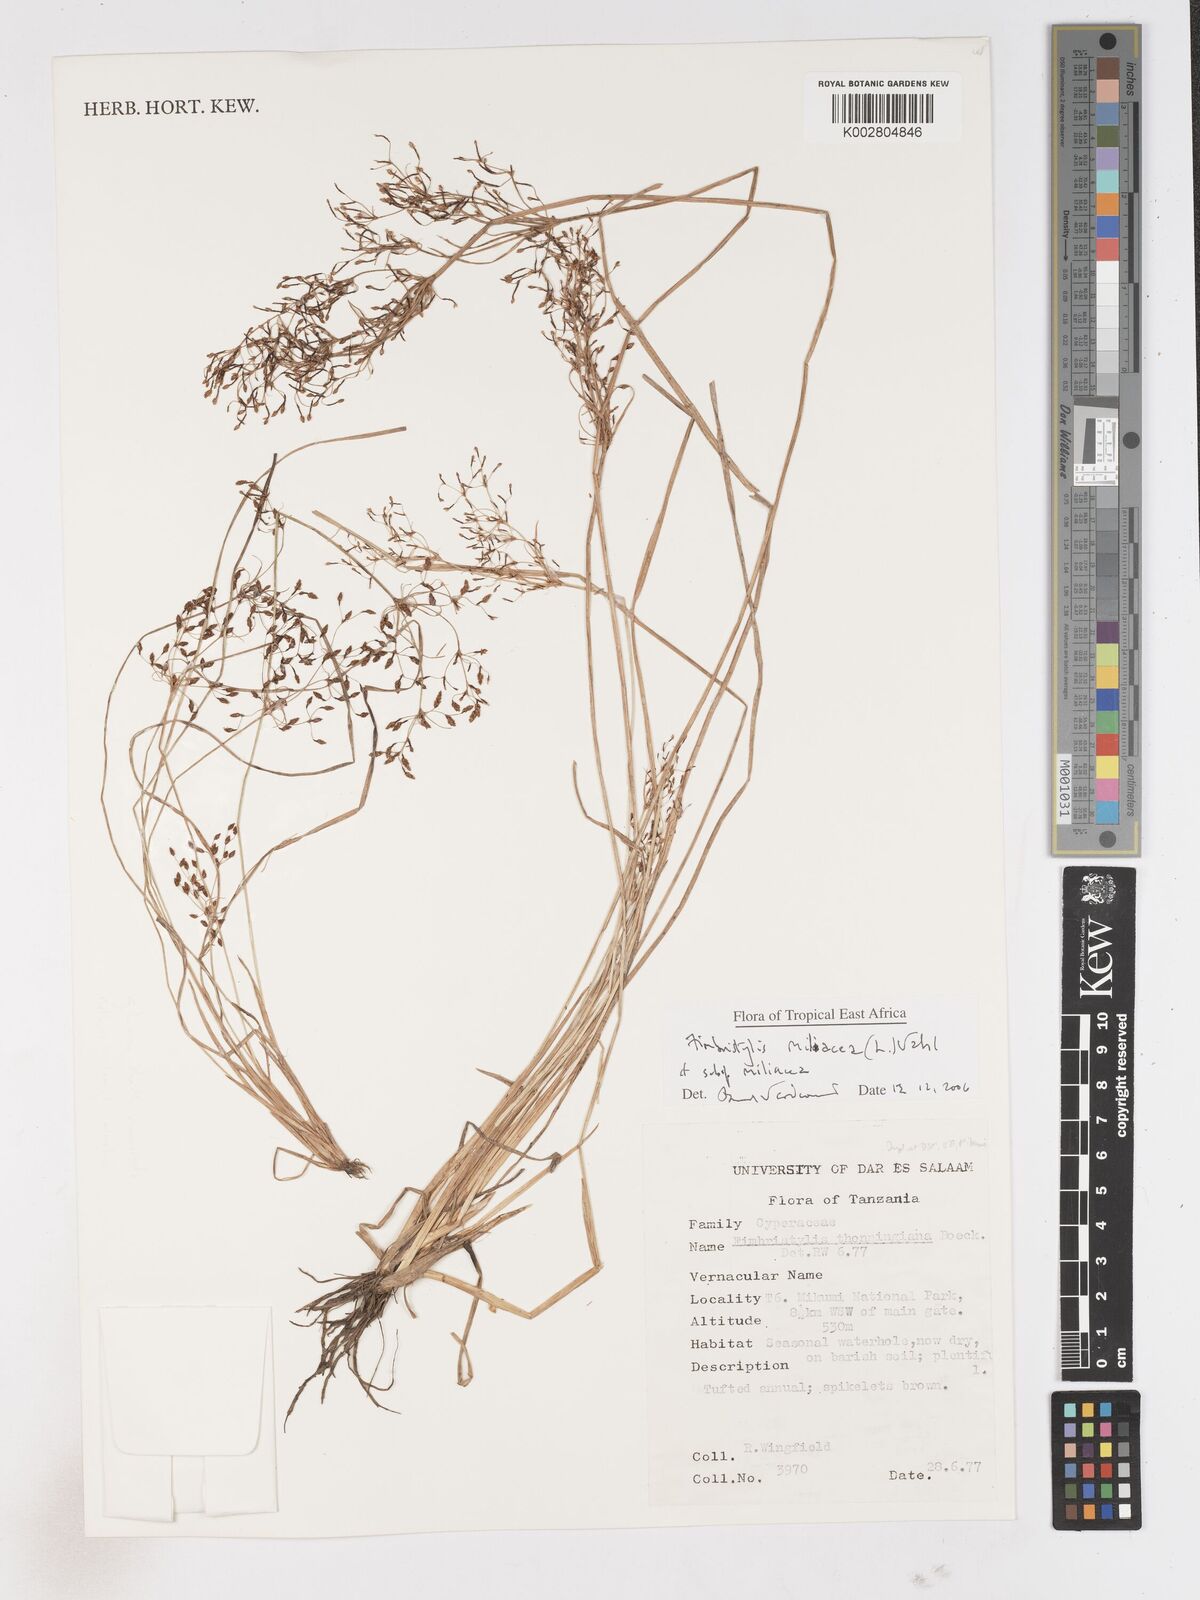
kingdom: Plantae
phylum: Tracheophyta
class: Liliopsida
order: Poales
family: Cyperaceae
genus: Fimbristylis
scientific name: Fimbristylis quinquangularis
